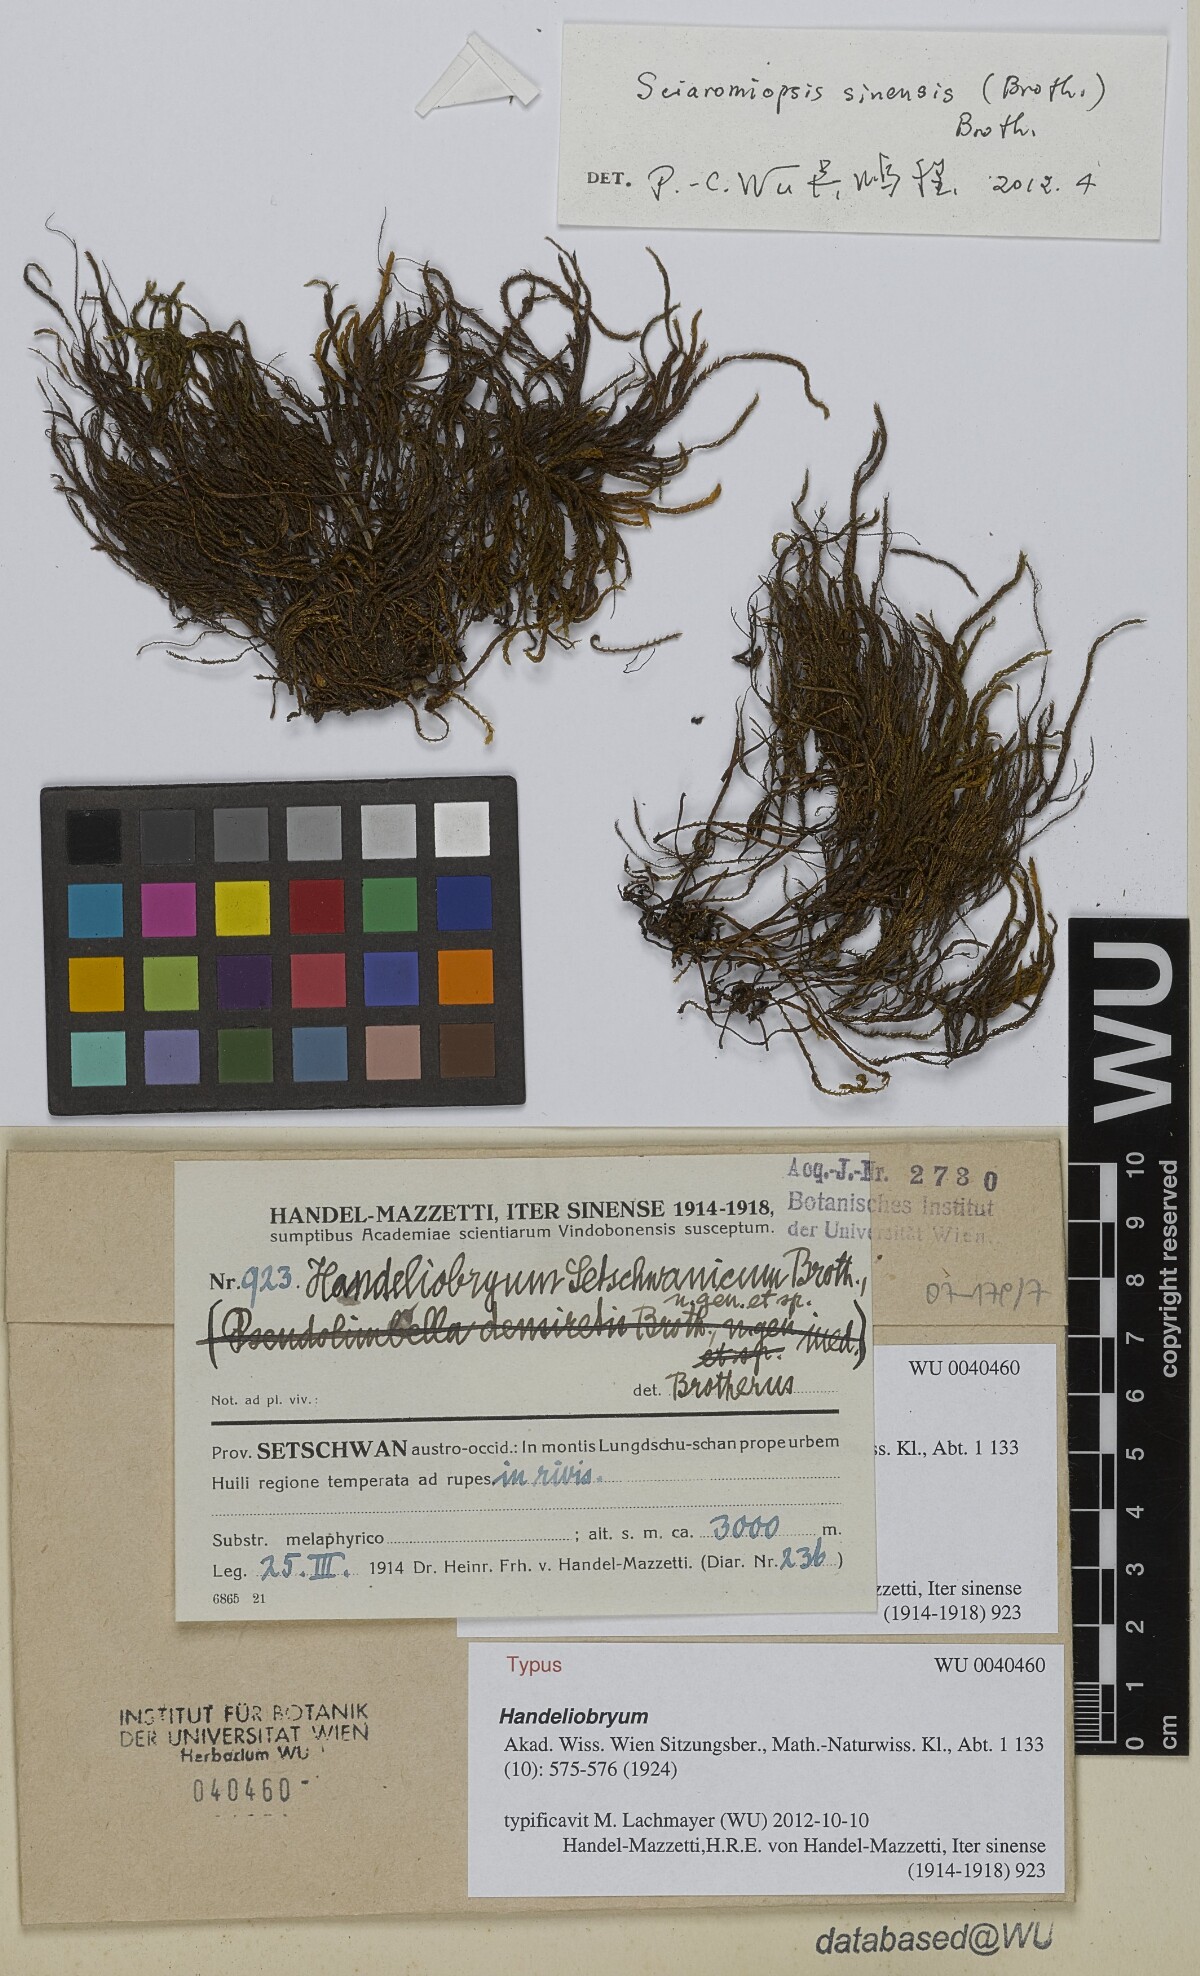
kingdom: Plantae
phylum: Bryophyta
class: Bryopsida
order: Hypnales
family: Neckeraceae
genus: Handeliobryum
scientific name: Handeliobryum sikkimense
